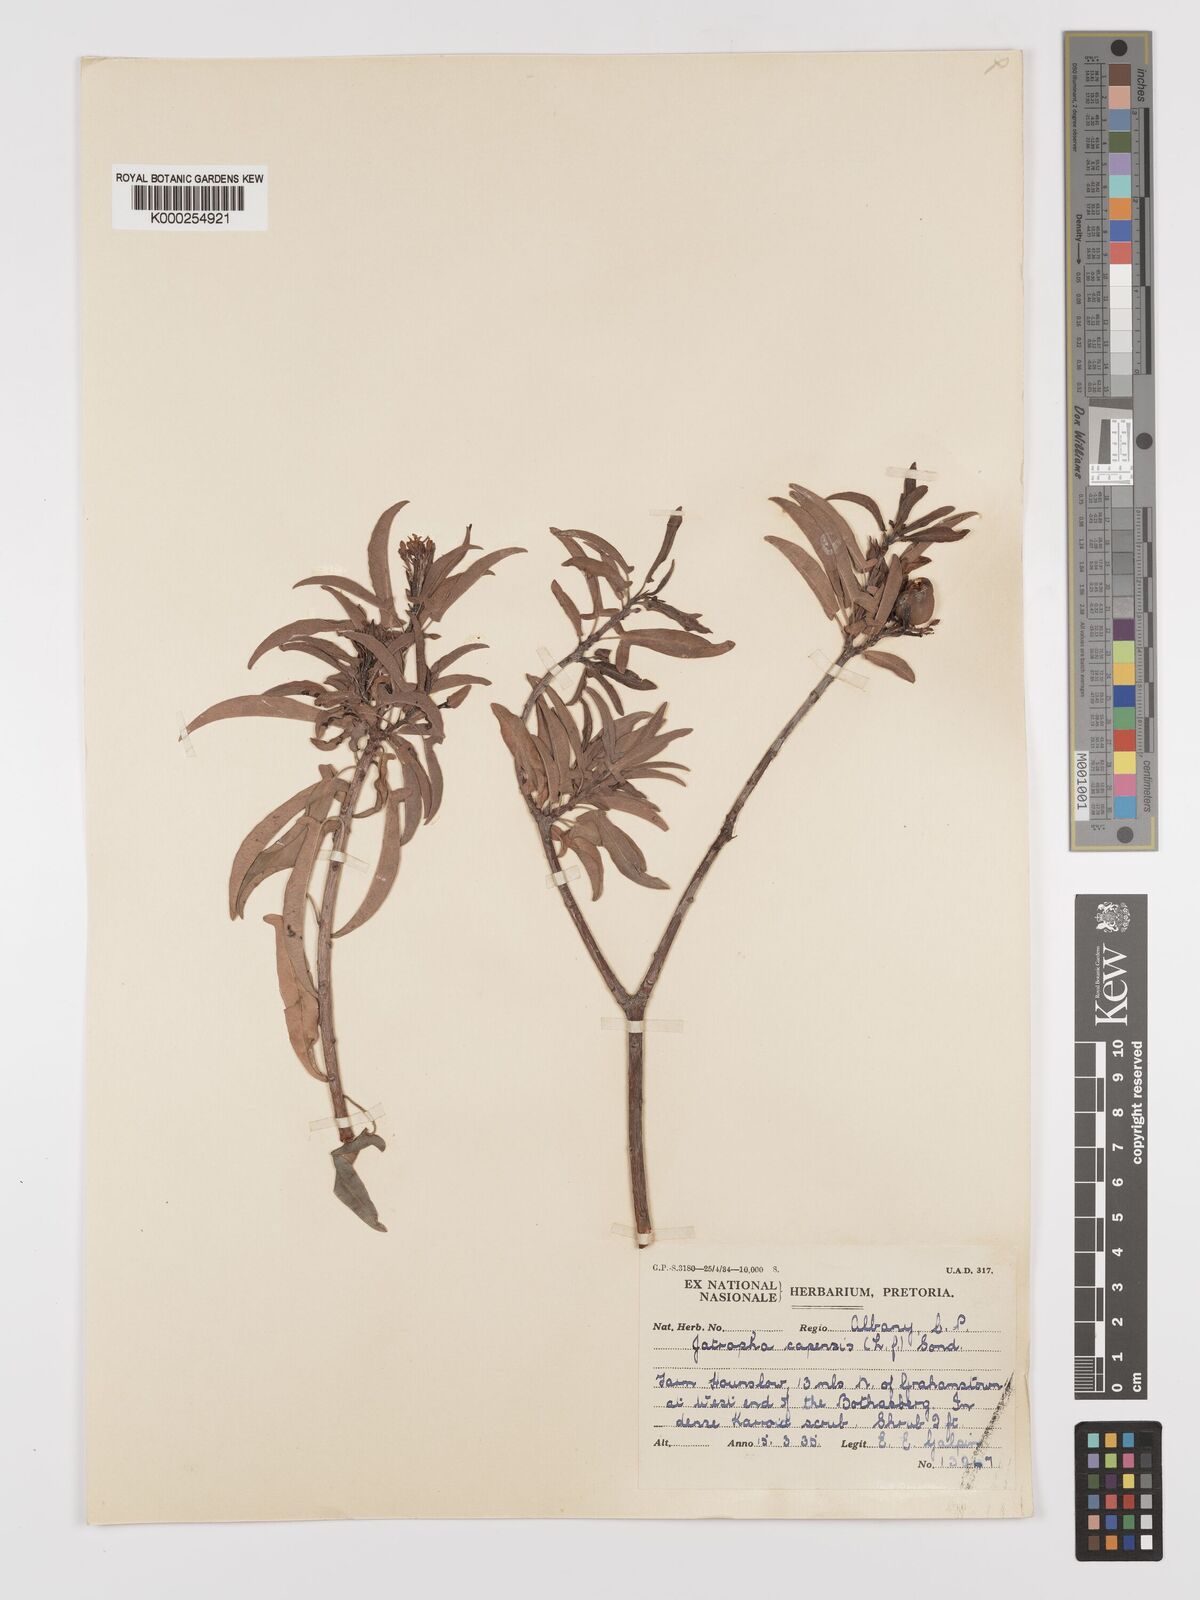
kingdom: Plantae
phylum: Tracheophyta
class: Magnoliopsida
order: Malpighiales
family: Euphorbiaceae
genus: Jatropha
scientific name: Jatropha capensis
